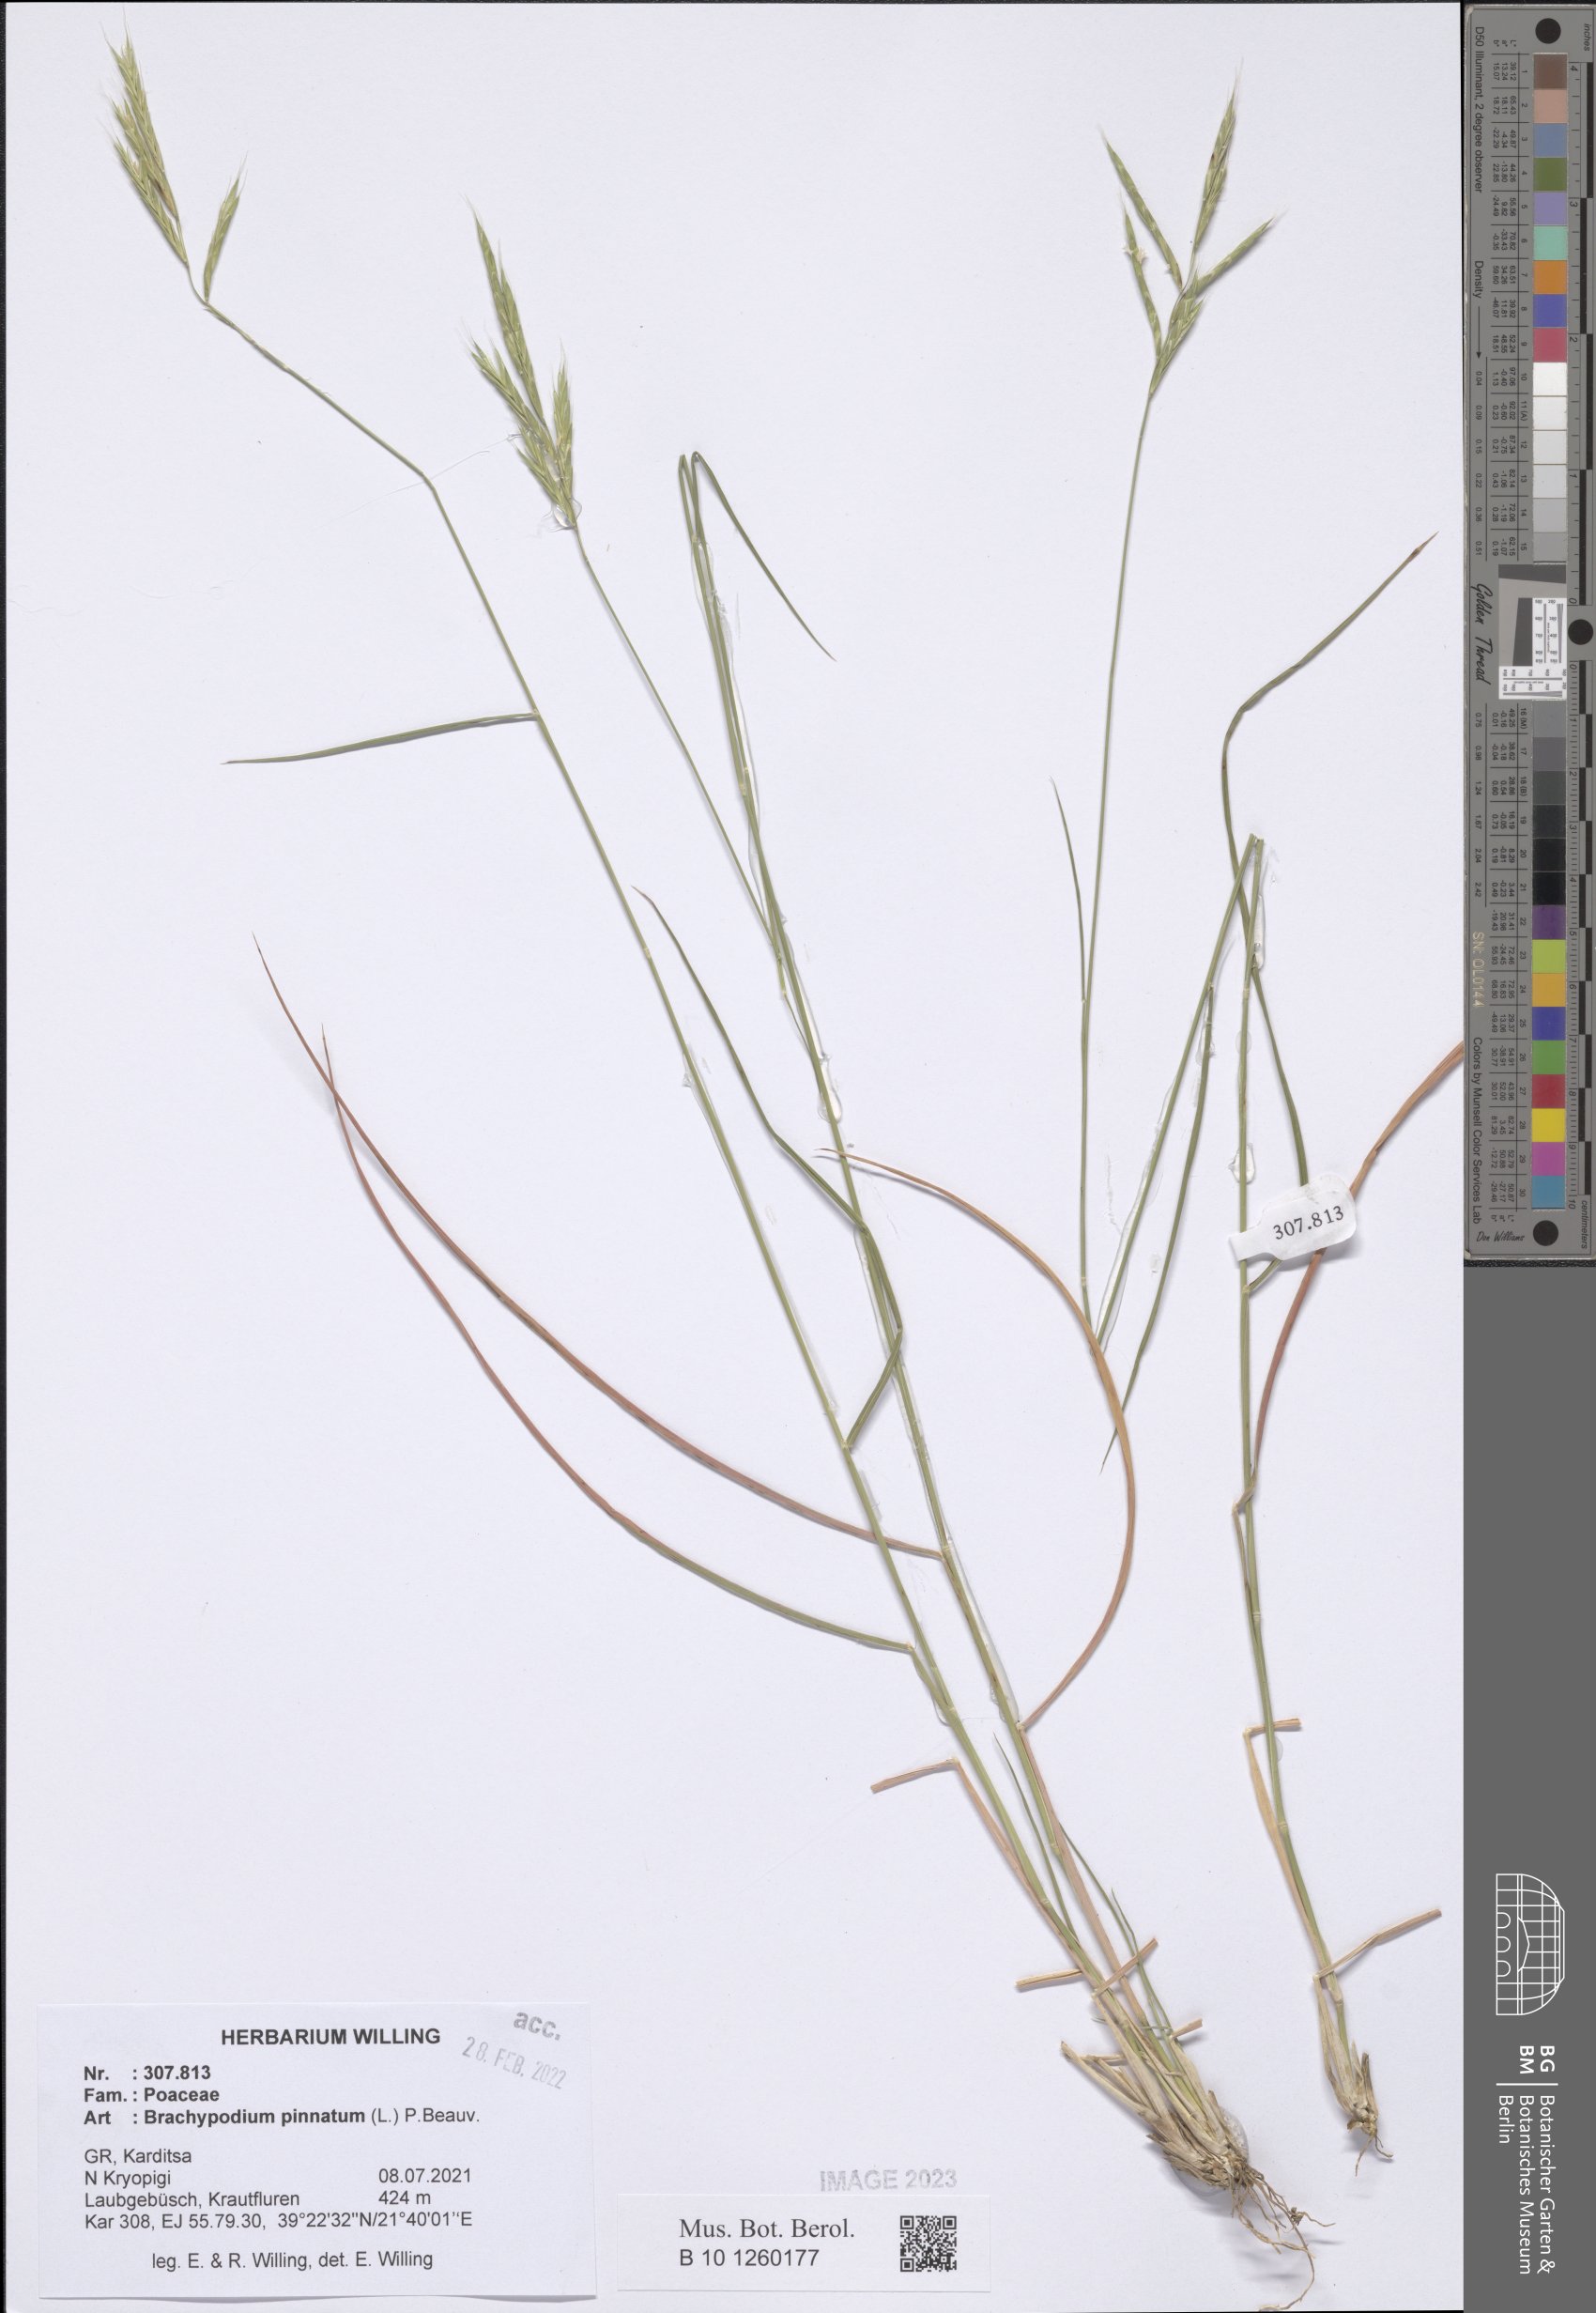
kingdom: Plantae
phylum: Tracheophyta
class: Liliopsida
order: Poales
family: Poaceae
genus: Brachypodium
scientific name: Brachypodium pinnatum
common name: Tor grass
